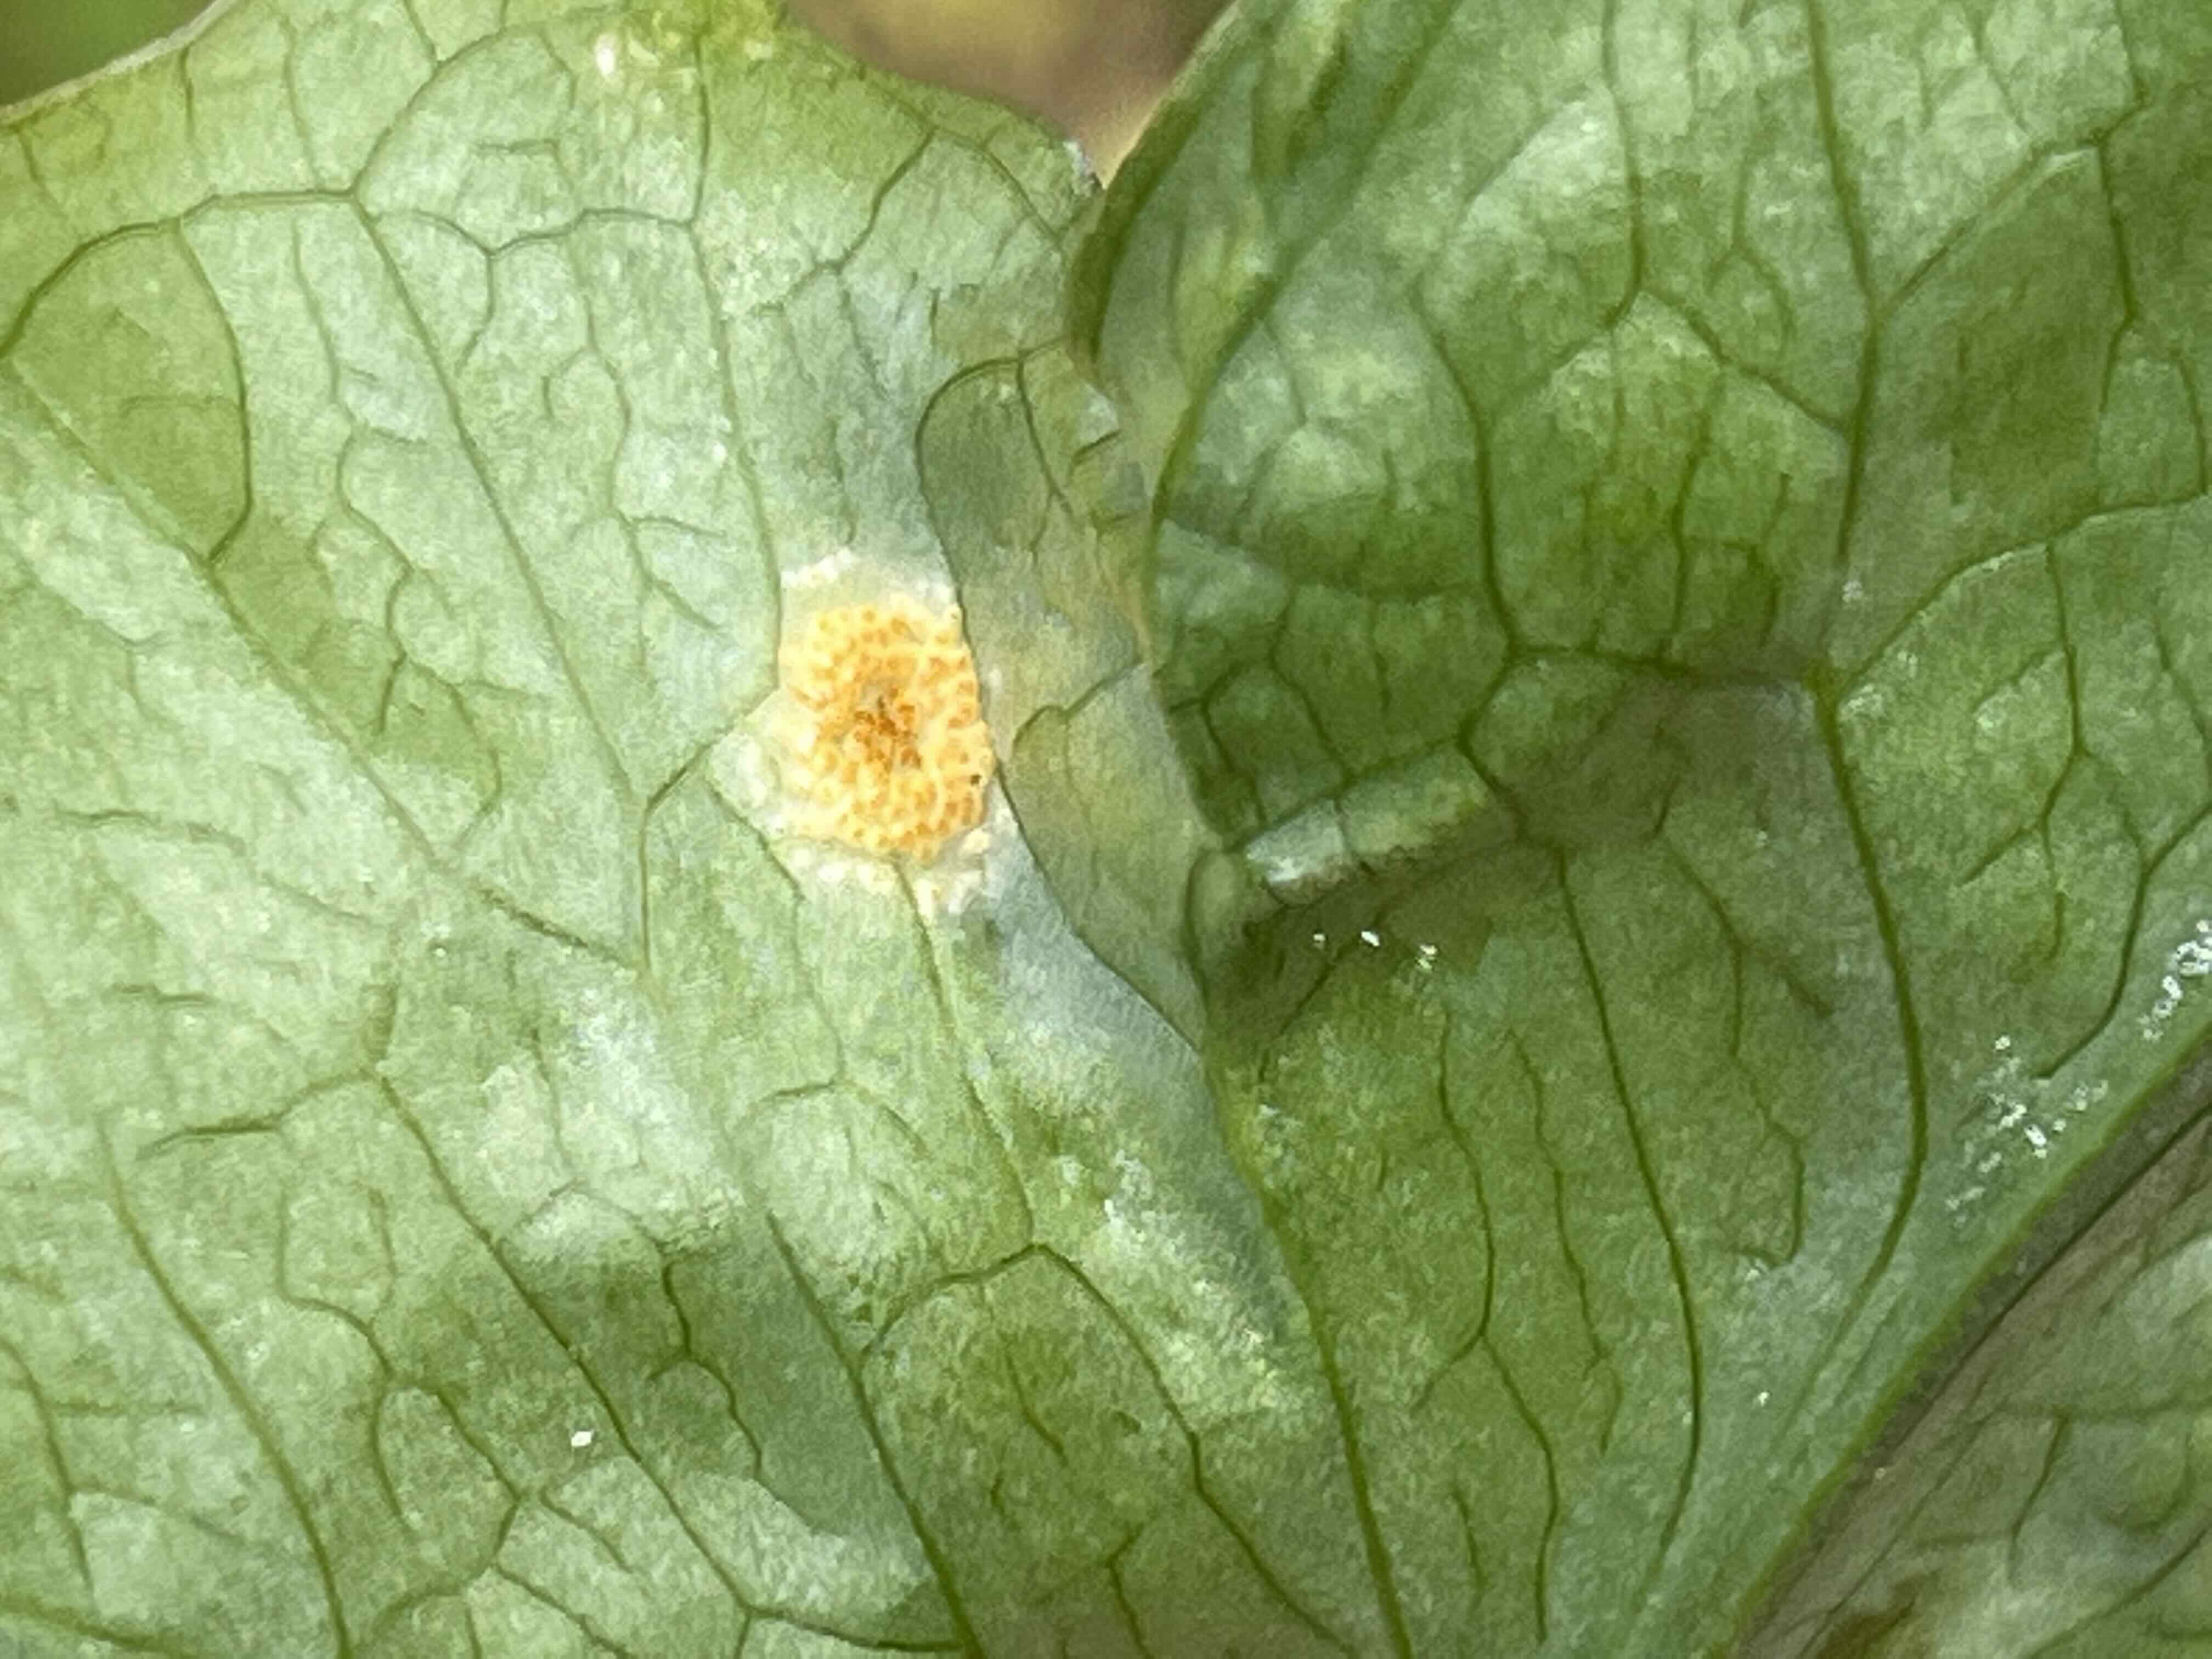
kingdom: Fungi
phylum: Basidiomycota
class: Pucciniomycetes
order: Pucciniales
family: Pucciniaceae
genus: Puccinia
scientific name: Puccinia sessilis
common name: Arum rust
